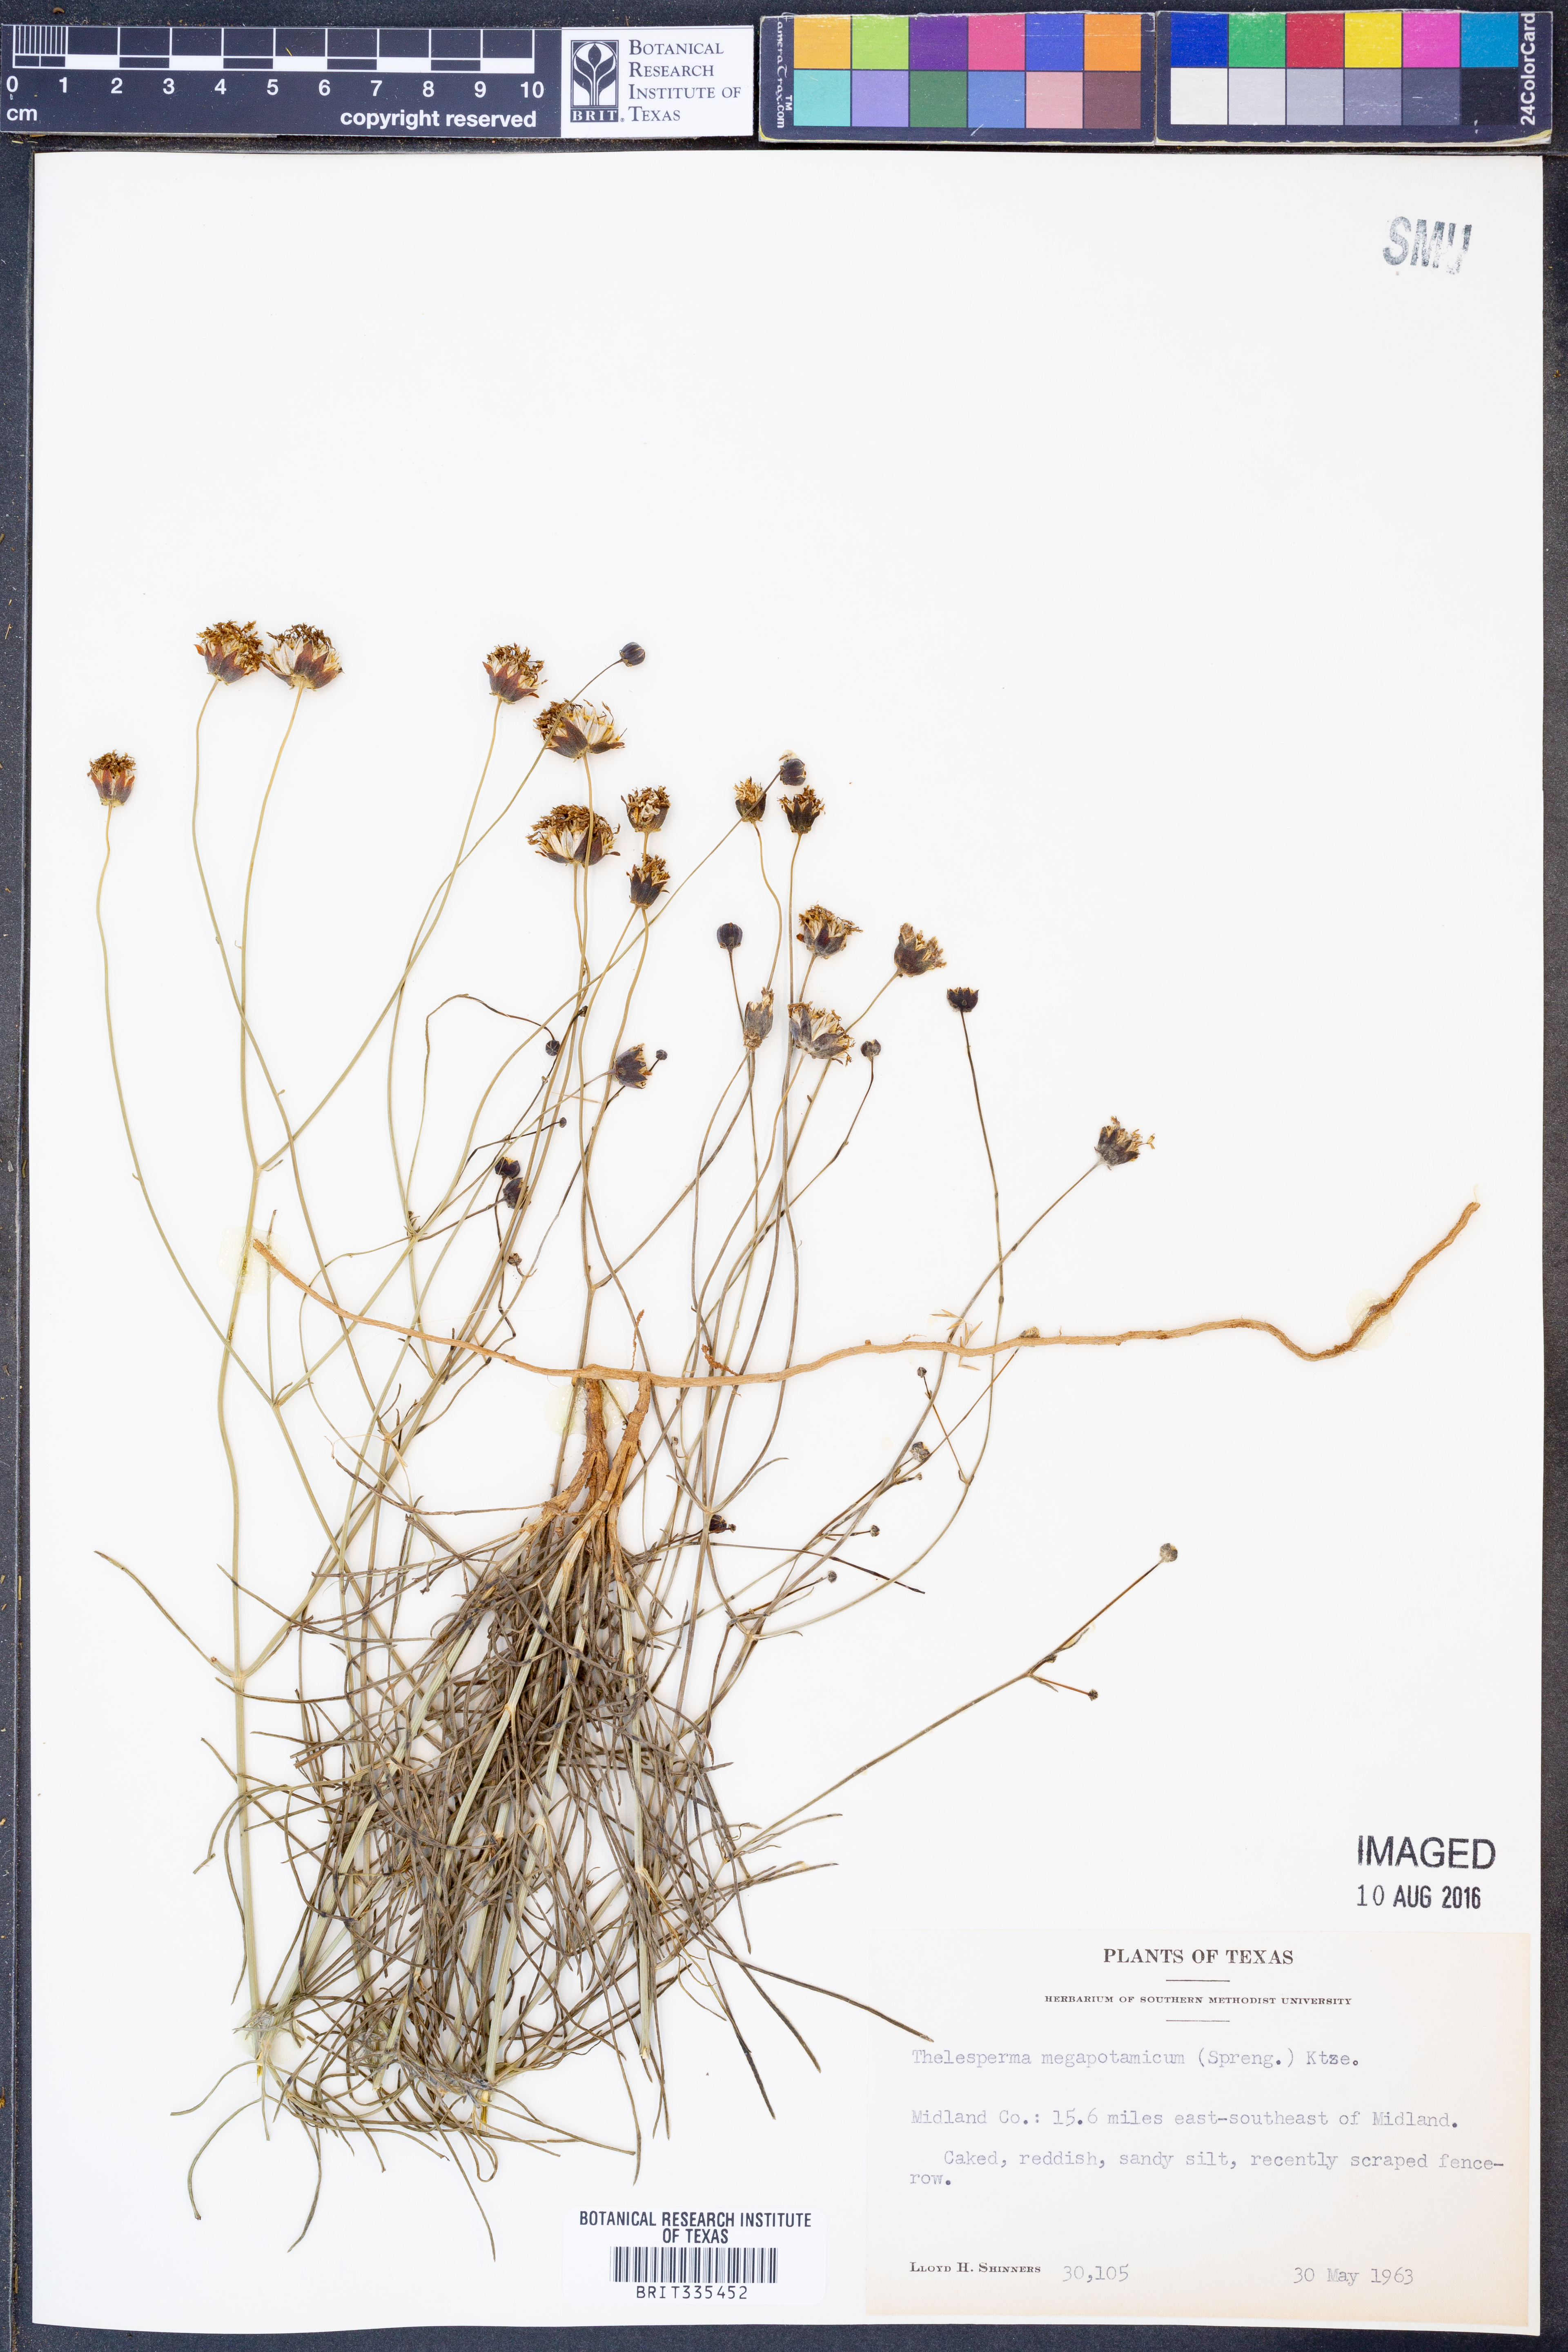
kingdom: Plantae
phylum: Tracheophyta
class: Magnoliopsida
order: Asterales
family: Asteraceae
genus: Thelesperma
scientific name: Thelesperma megapotamicum
